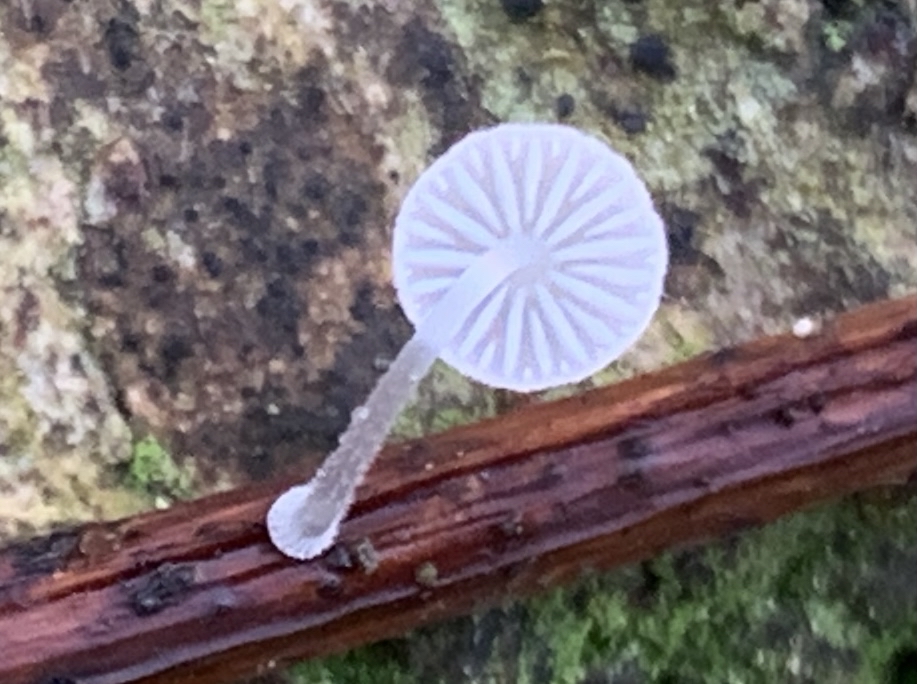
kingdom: Fungi
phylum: Basidiomycota
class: Agaricomycetes
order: Agaricales
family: Mycenaceae
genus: Mycena
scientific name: Mycena tenerrima
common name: pudret huesvamp
